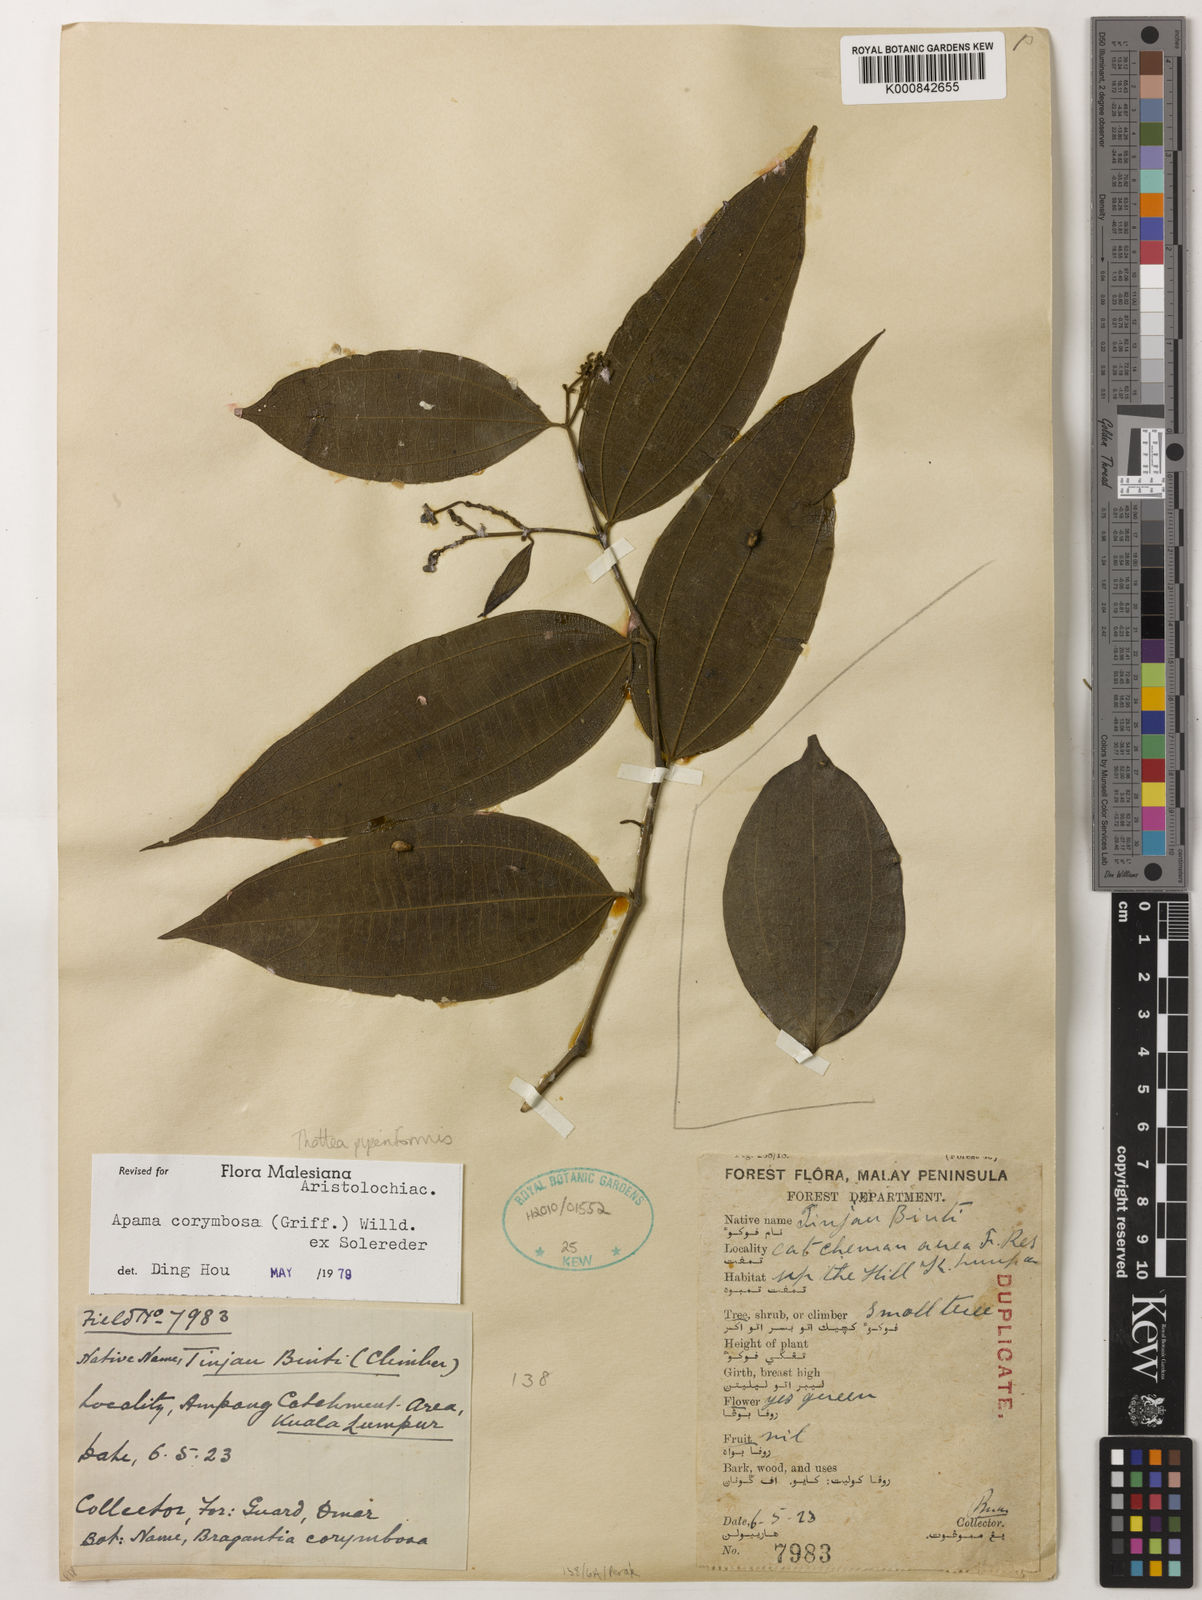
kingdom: Plantae
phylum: Tracheophyta
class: Magnoliopsida
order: Piperales
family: Aristolochiaceae
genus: Thottea
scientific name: Thottea piperiformis
